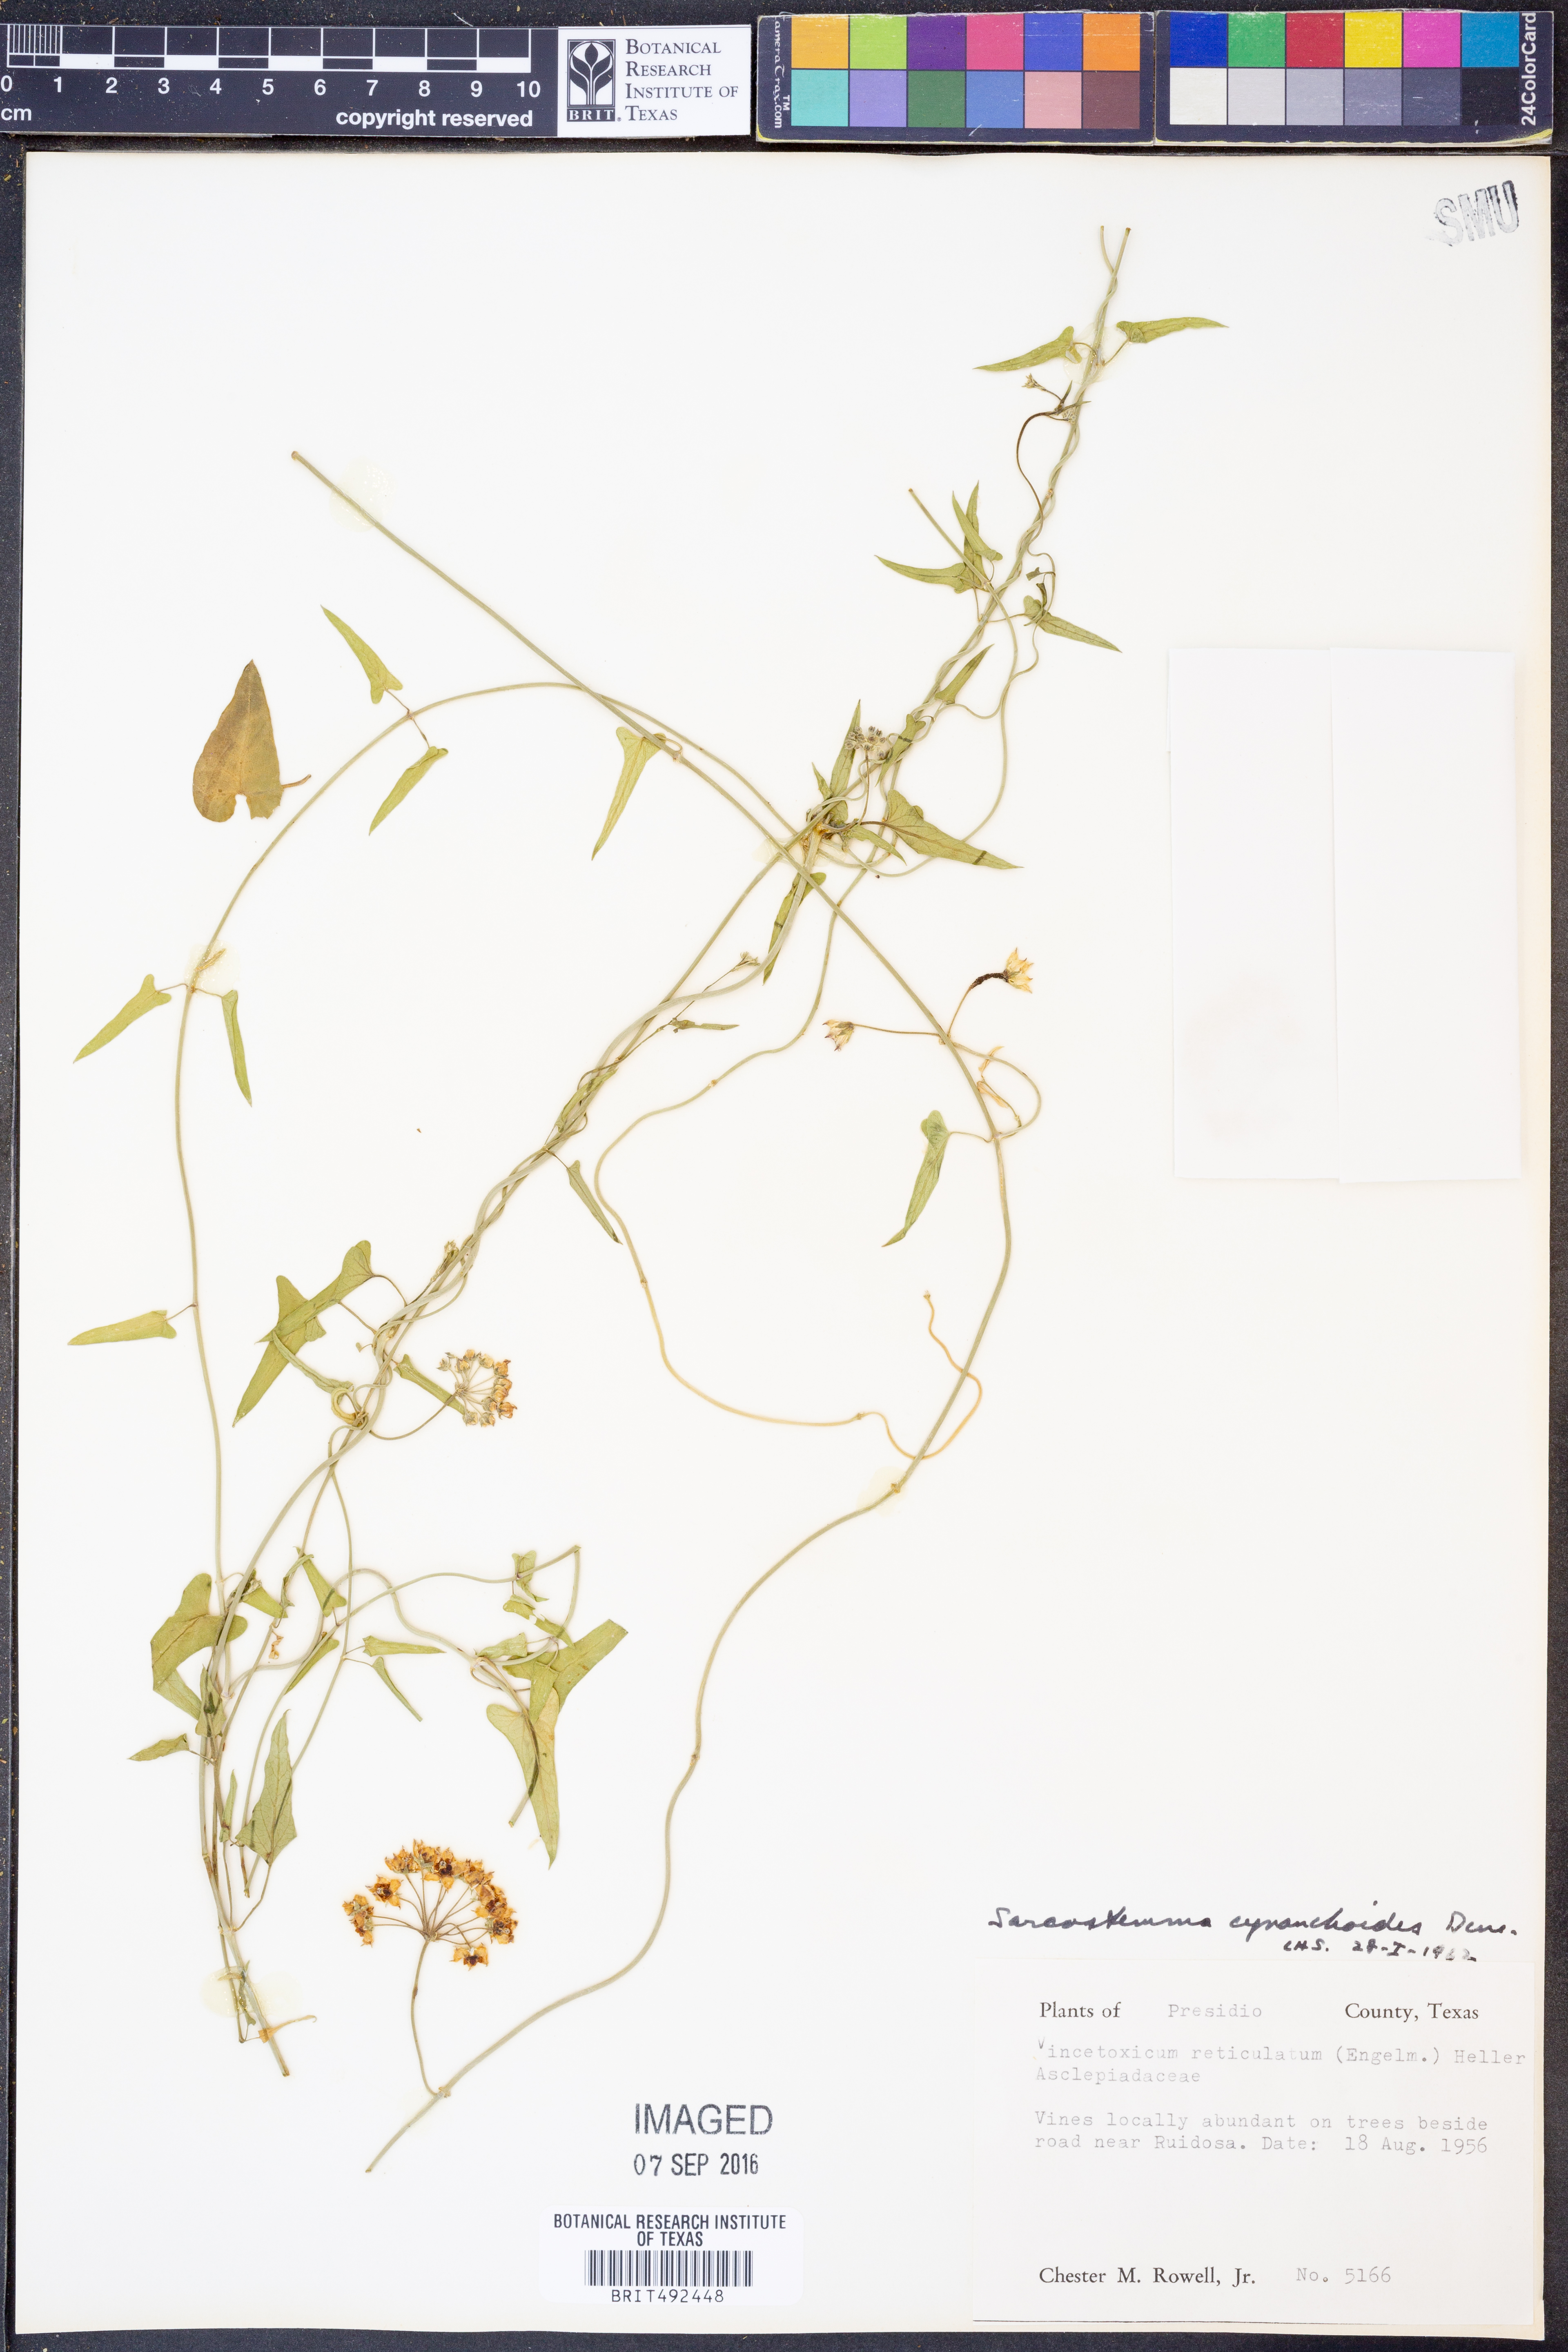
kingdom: Plantae
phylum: Tracheophyta
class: Magnoliopsida
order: Gentianales
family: Apocynaceae
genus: Funastrum
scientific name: Funastrum cynanchoides
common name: Climbing-milkweed
